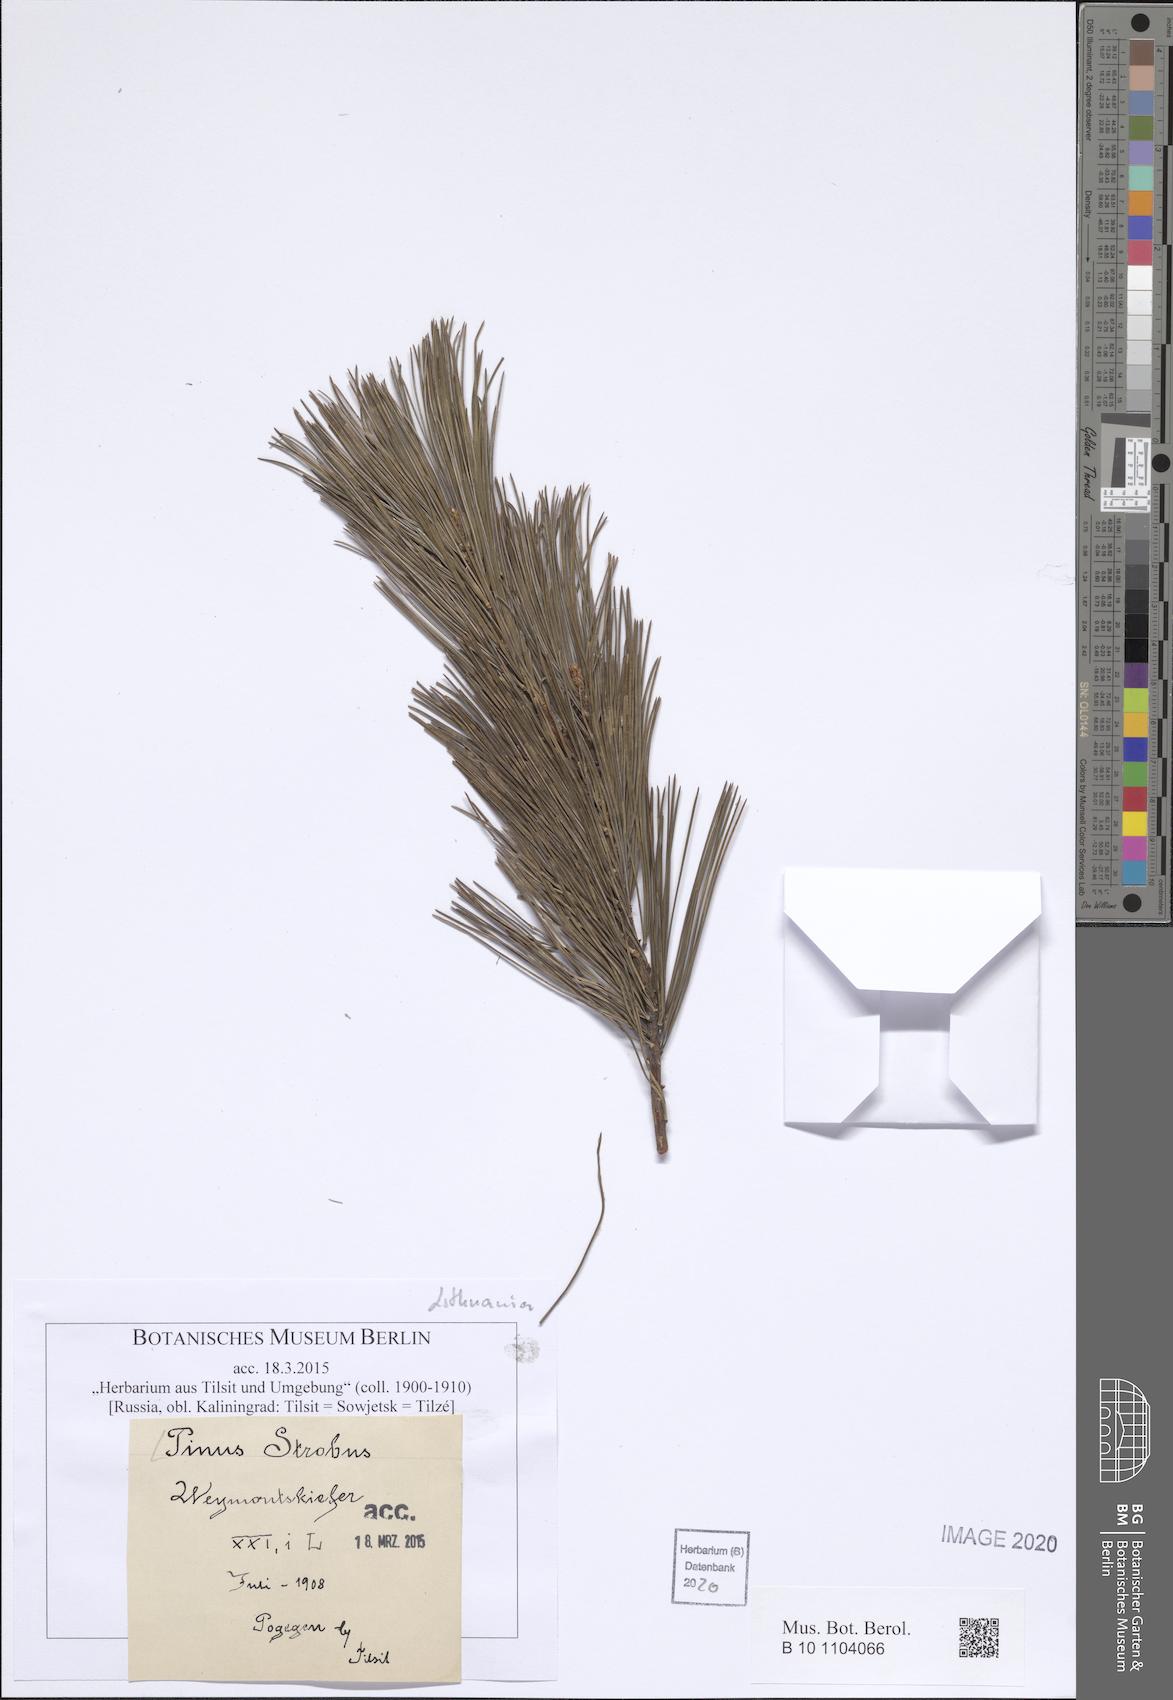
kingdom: Plantae
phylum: Tracheophyta
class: Pinopsida
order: Pinales
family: Pinaceae
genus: Pinus
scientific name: Pinus strobus
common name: Weymouth pine
